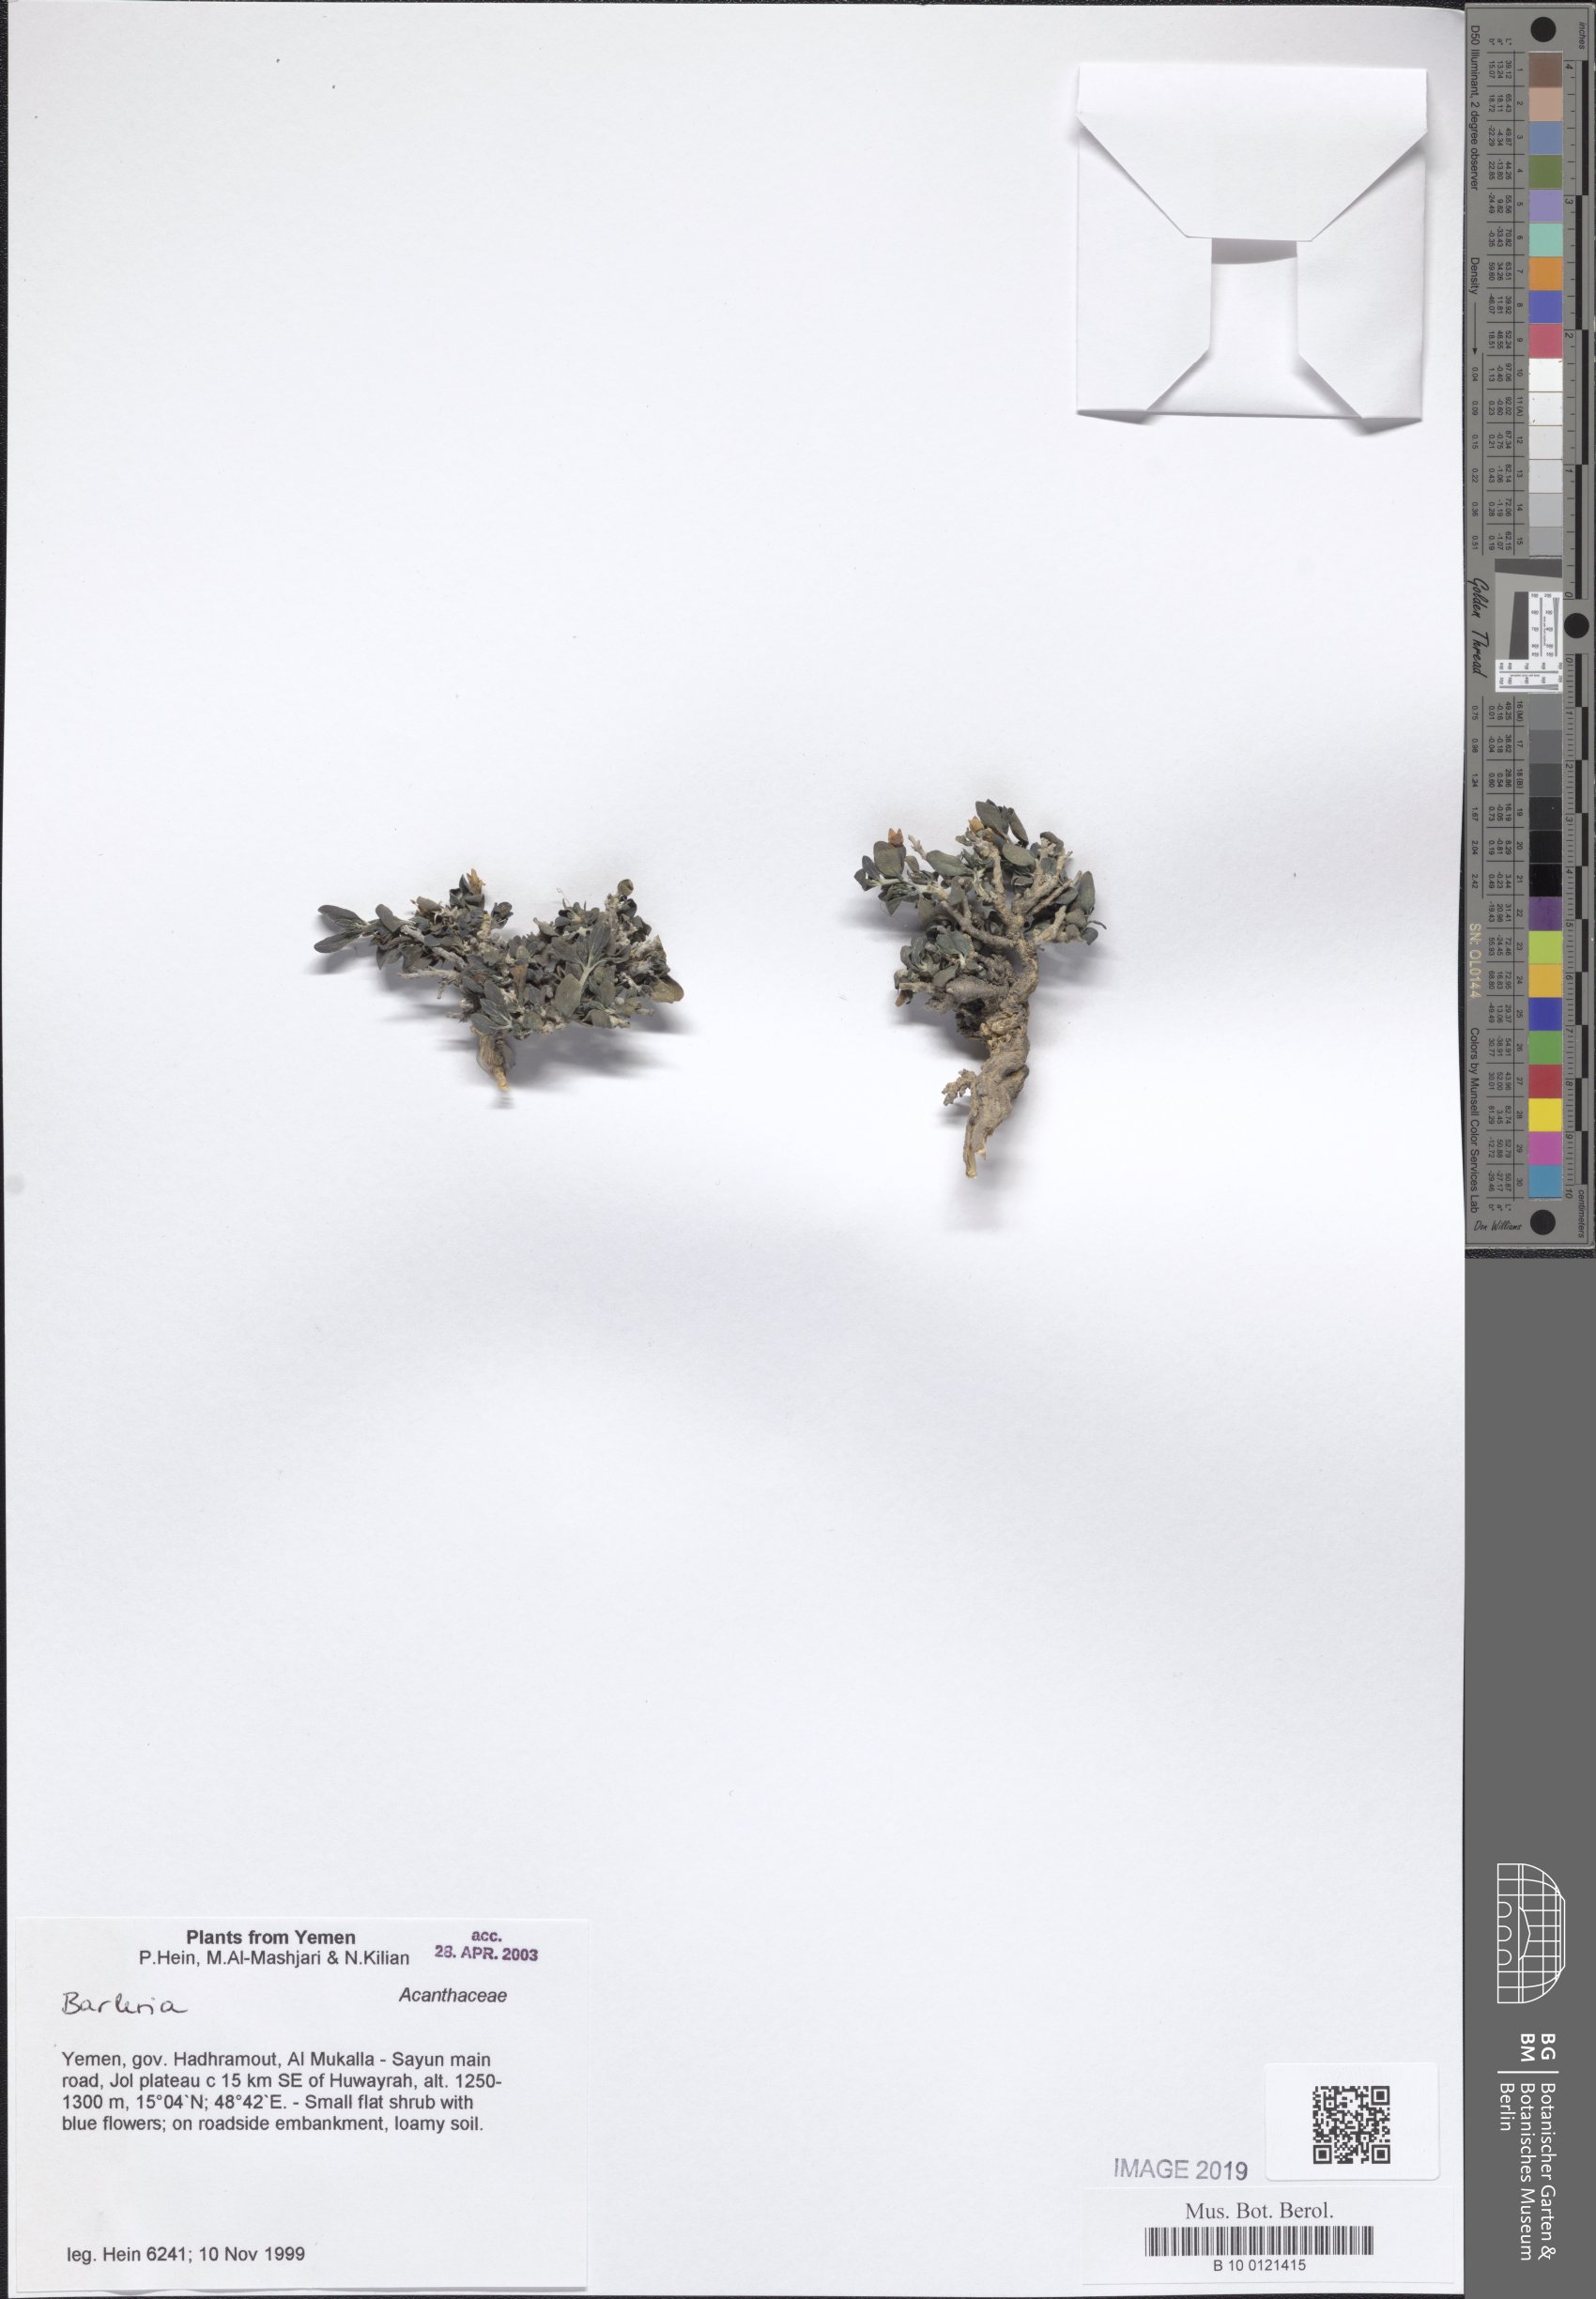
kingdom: Plantae
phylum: Tracheophyta
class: Magnoliopsida
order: Lamiales
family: Acanthaceae
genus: Barleria
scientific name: Barleria
